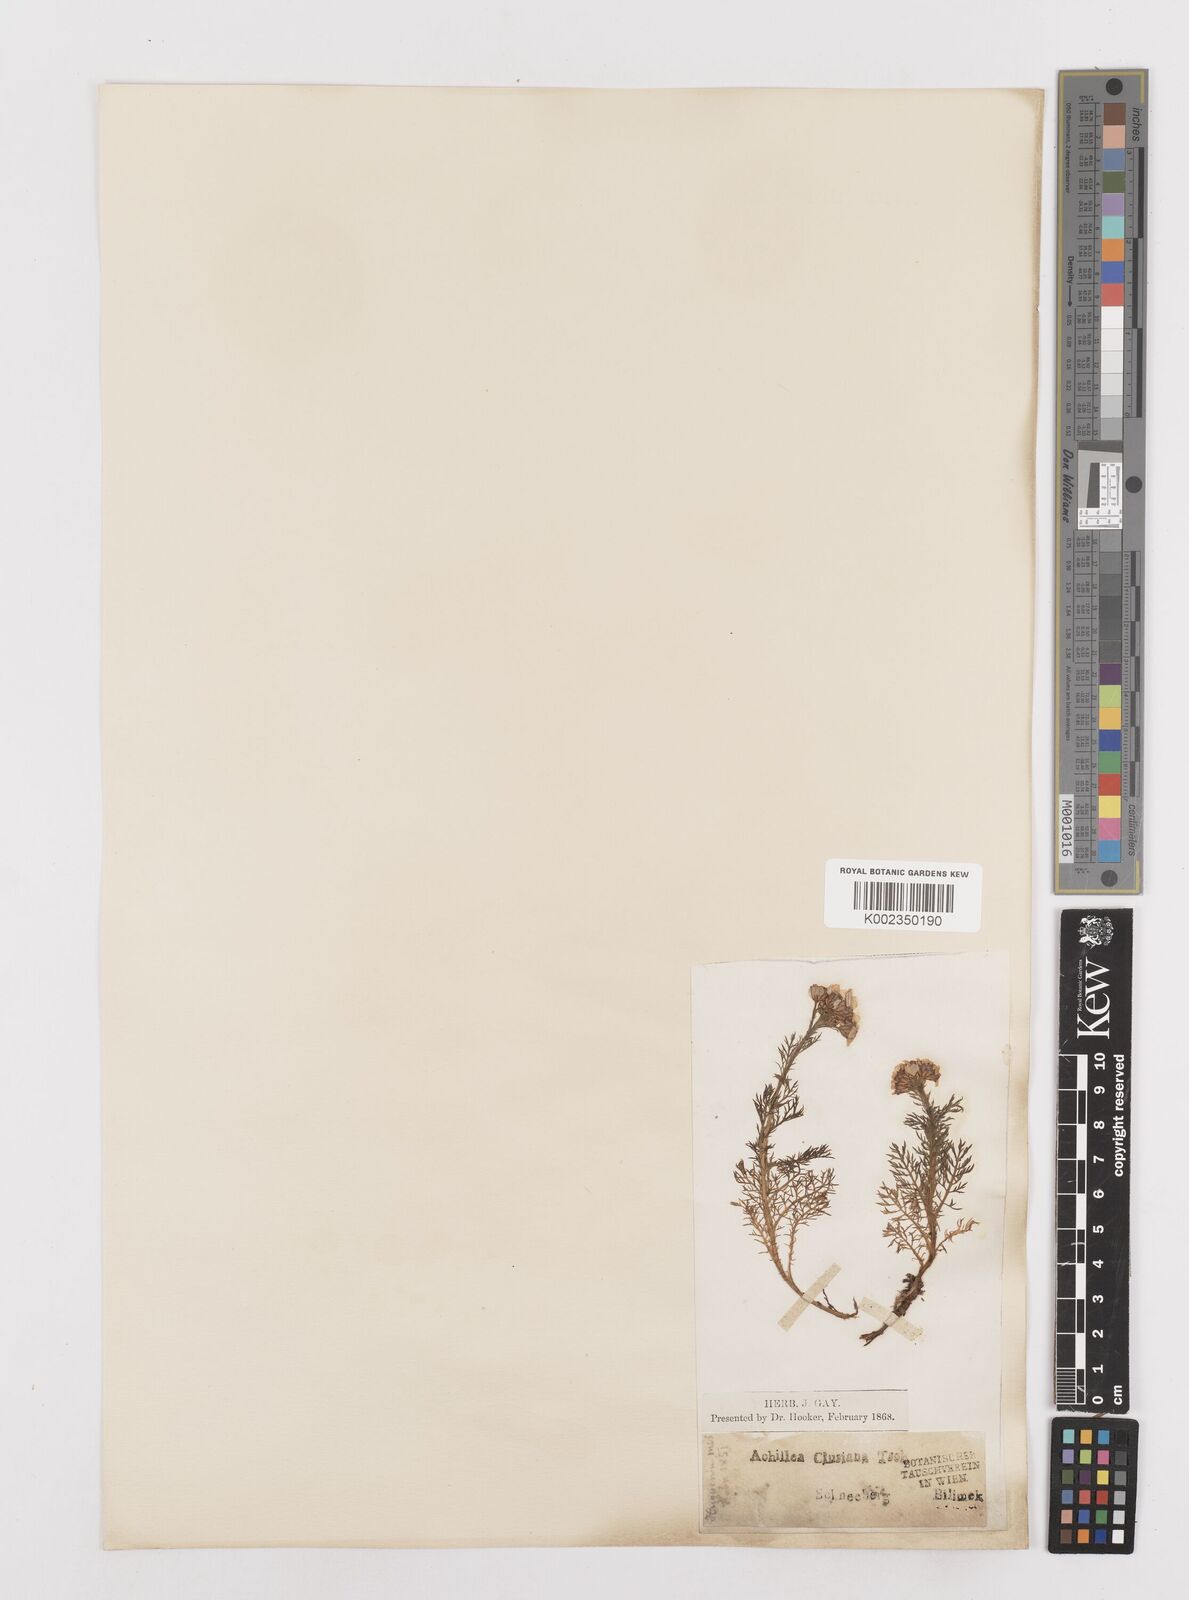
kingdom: Plantae
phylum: Tracheophyta
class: Magnoliopsida
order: Asterales
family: Asteraceae
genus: Achillea
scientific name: Achillea clusiana
